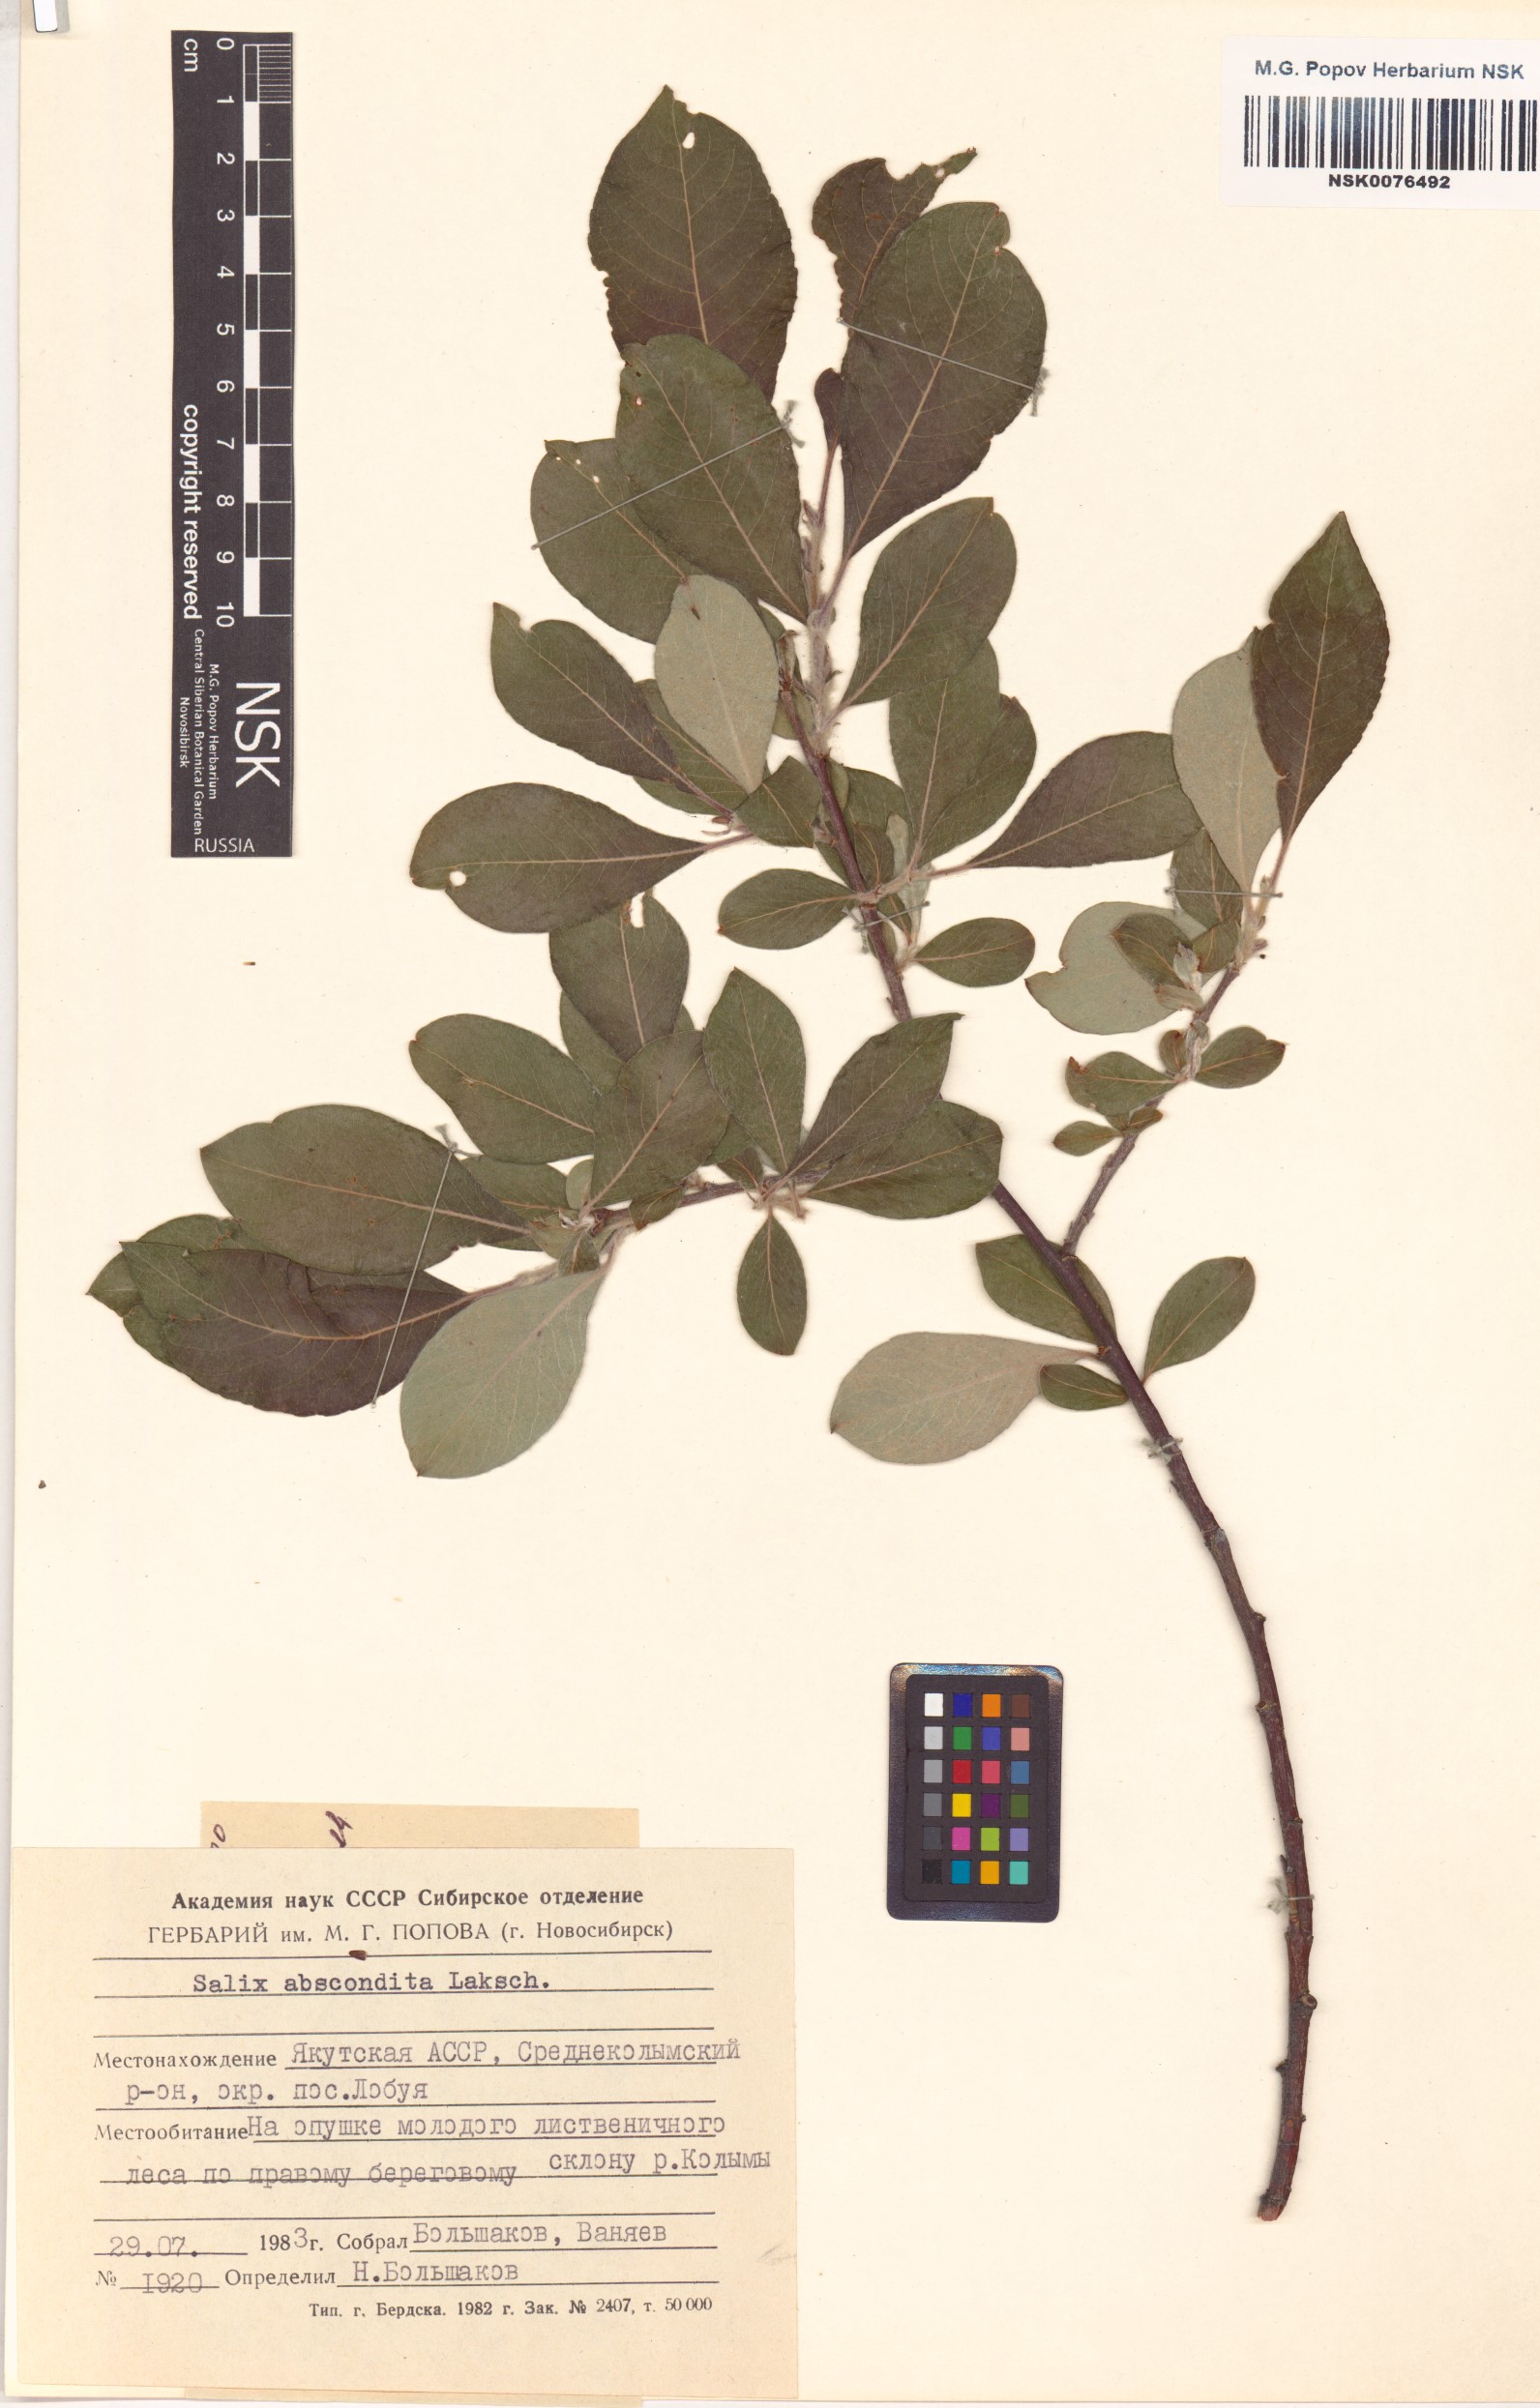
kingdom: Plantae
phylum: Tracheophyta
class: Magnoliopsida
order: Malpighiales
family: Salicaceae
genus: Salix
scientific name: Salix abscondita
